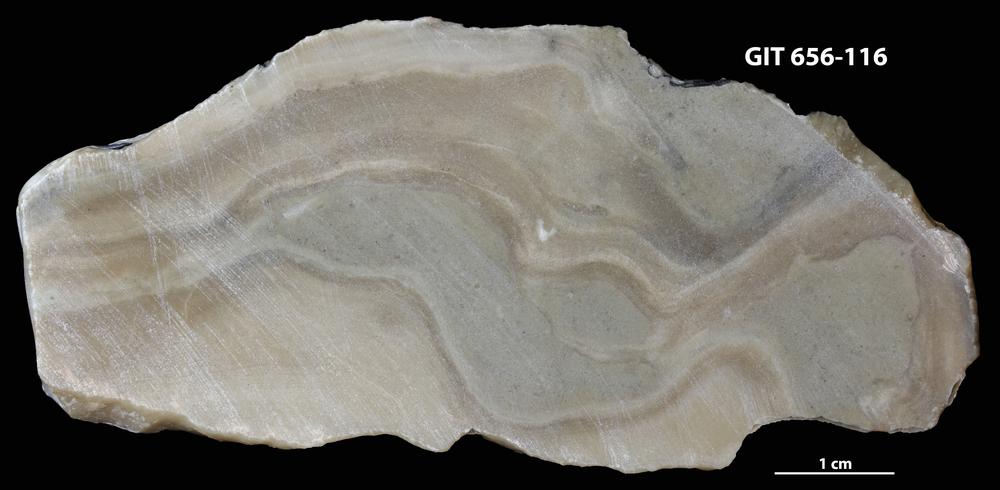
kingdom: Animalia
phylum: Porifera
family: Actinostromatidae
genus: Plectostroma
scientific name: Plectostroma
